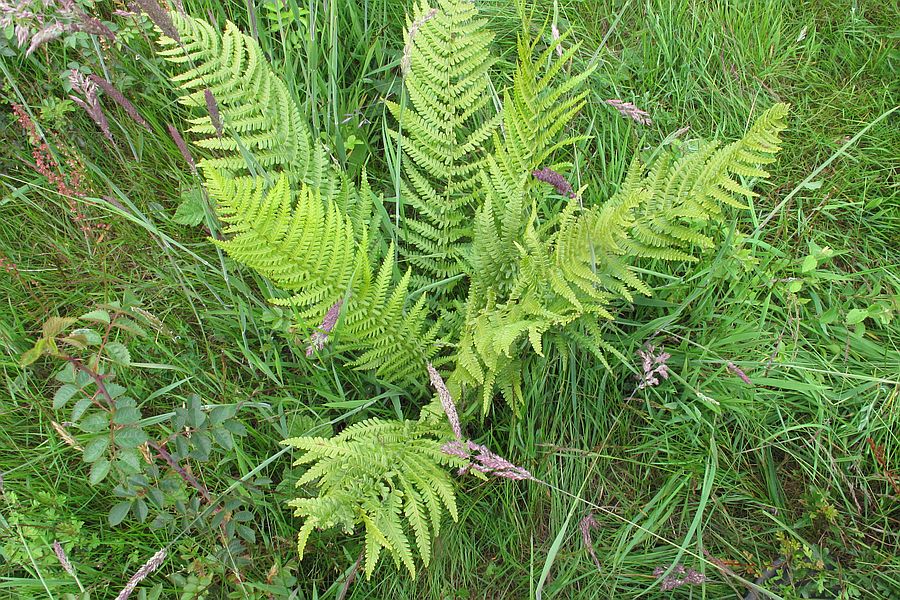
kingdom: Fungi
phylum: Ascomycota
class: Leotiomycetes
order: Helotiales
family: Pezizellaceae
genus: Psilachnum
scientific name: Psilachnum chrysostigmum
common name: gulnende hårskive
